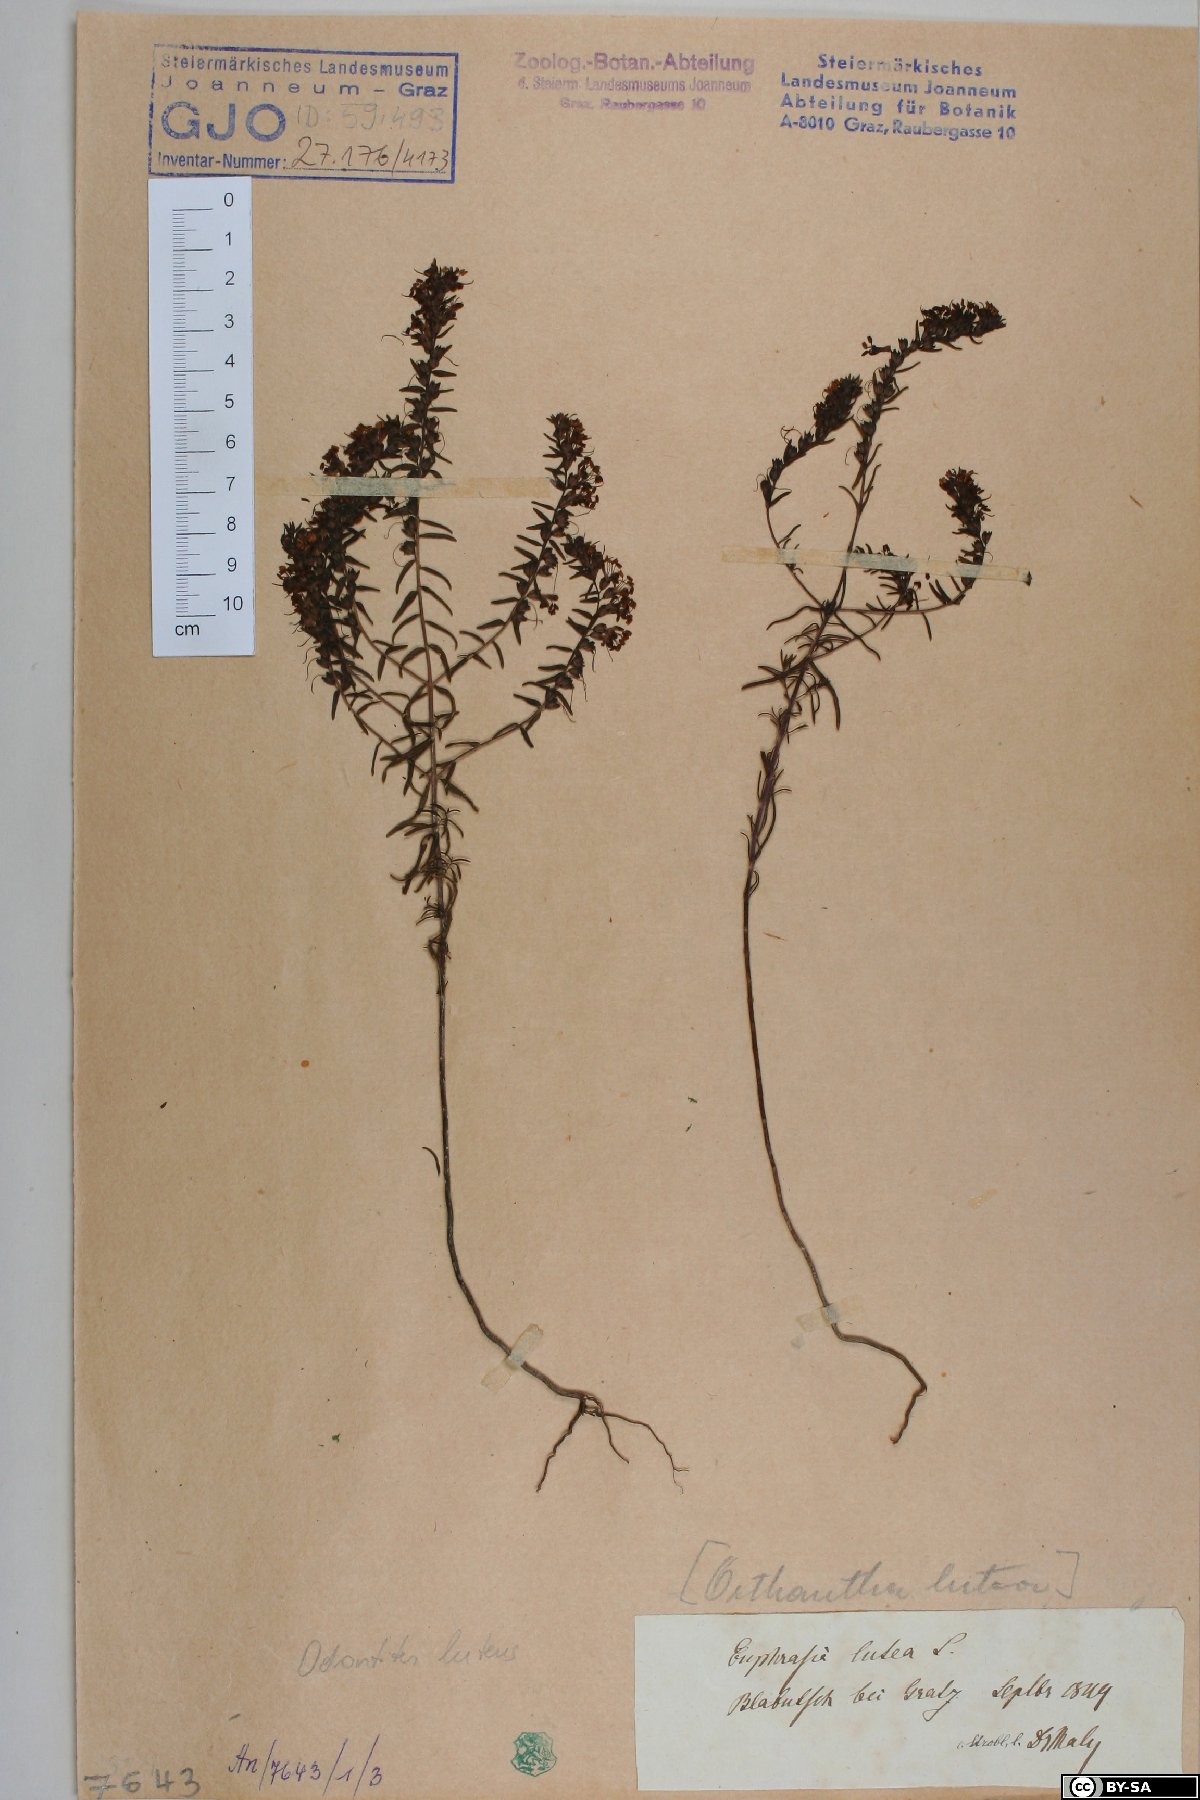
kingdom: Plantae
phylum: Tracheophyta
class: Magnoliopsida
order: Lamiales
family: Orobanchaceae
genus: Odontites
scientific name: Odontites luteus
